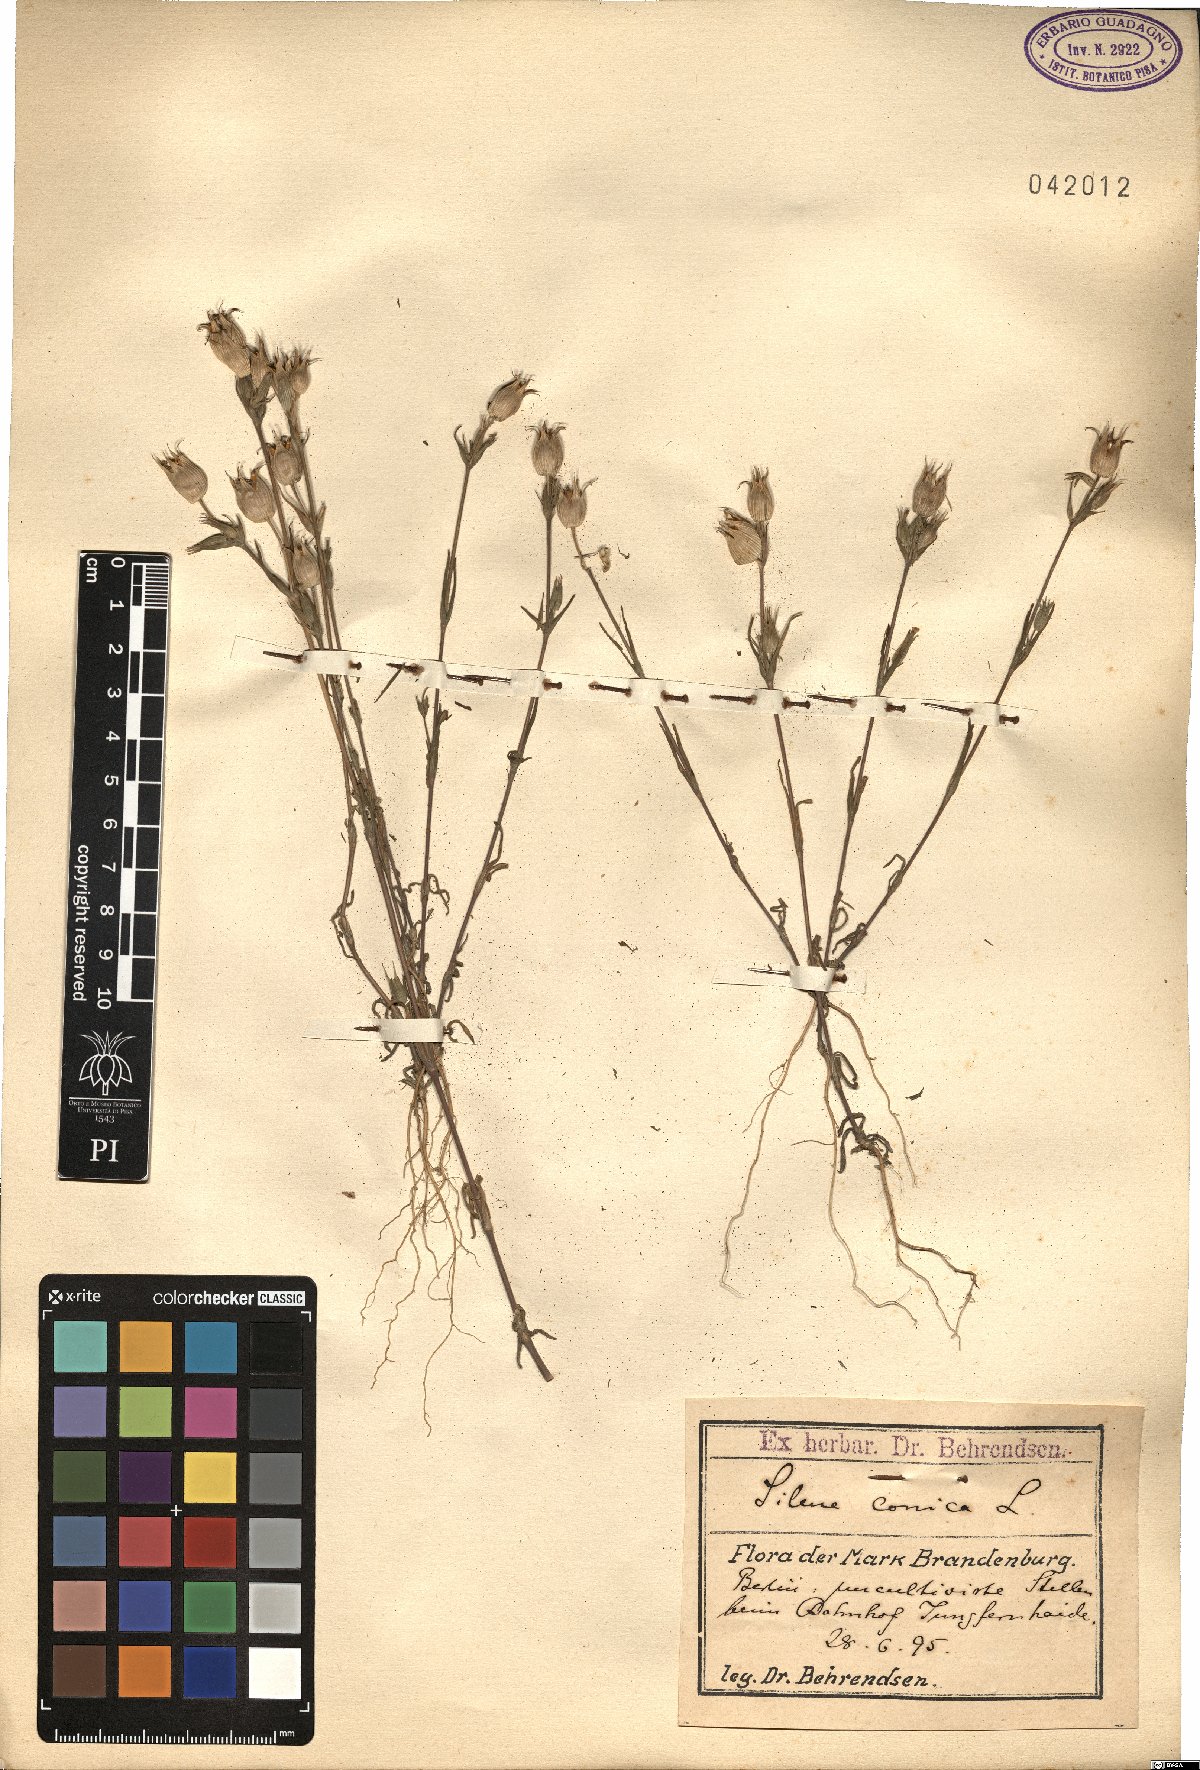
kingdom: Plantae
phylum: Tracheophyta
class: Magnoliopsida
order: Caryophyllales
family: Caryophyllaceae
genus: Silene
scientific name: Silene conica
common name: Sand catchfly
